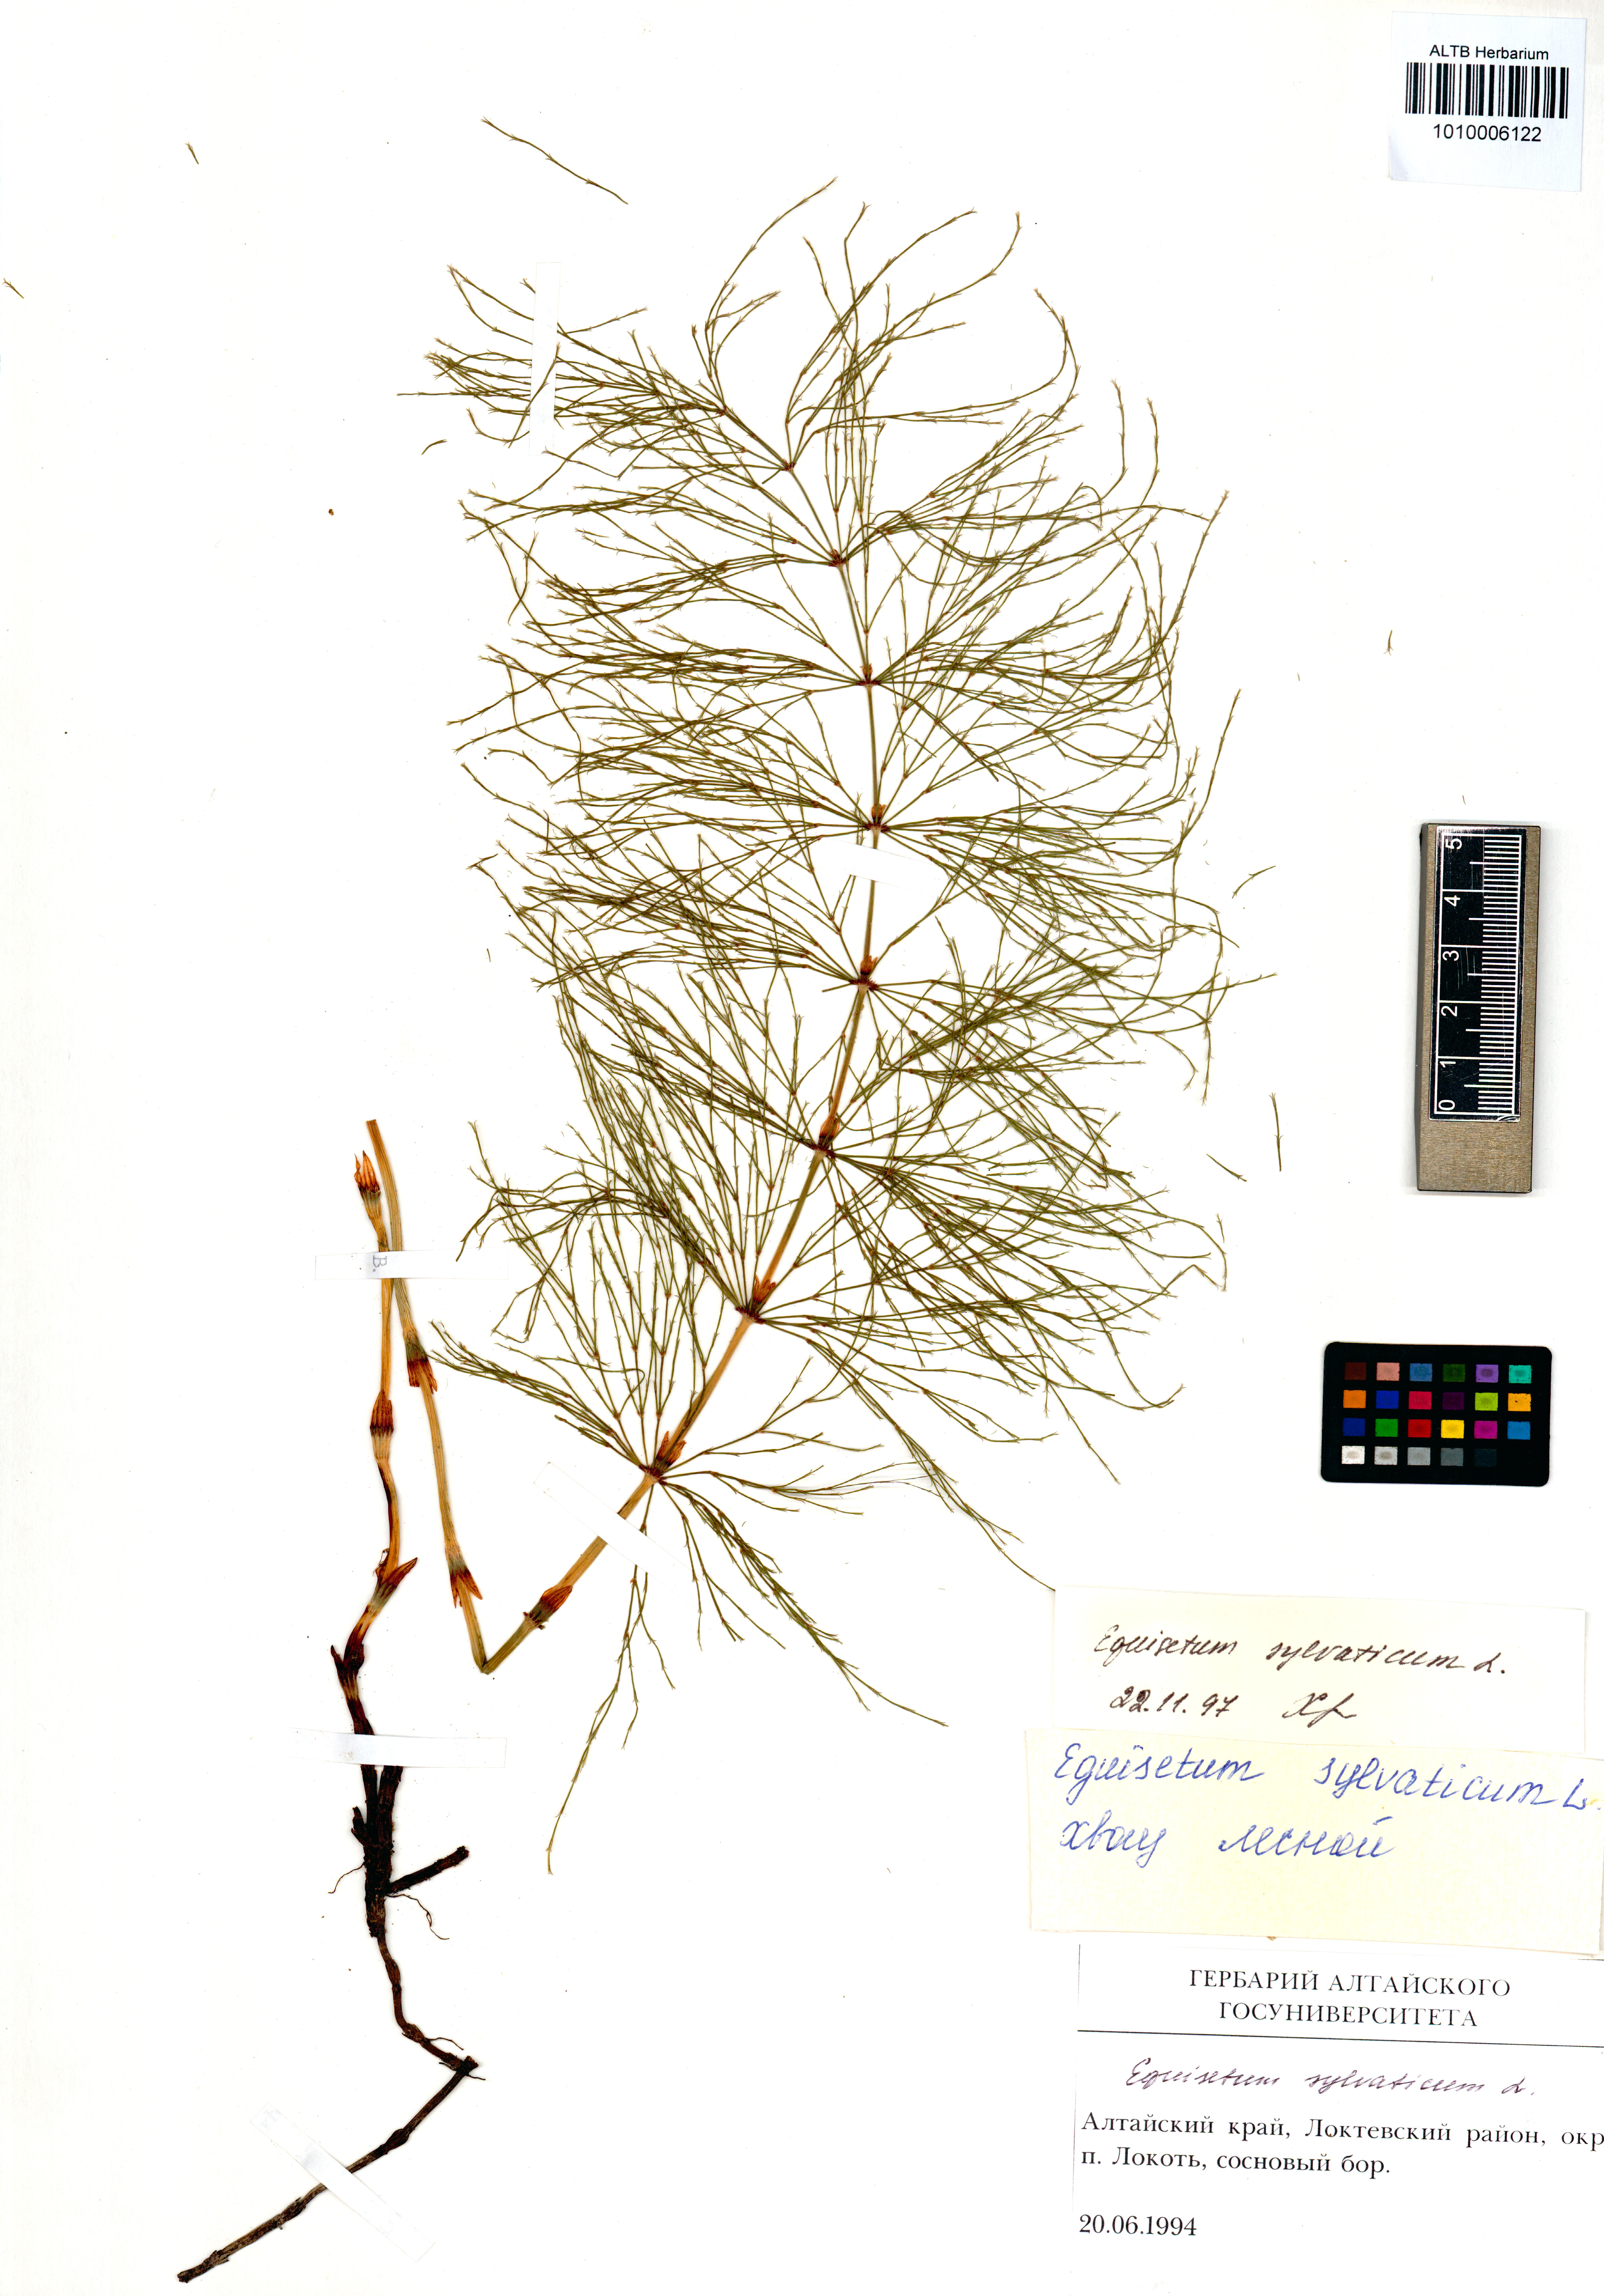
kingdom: Plantae
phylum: Tracheophyta
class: Polypodiopsida
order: Equisetales
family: Equisetaceae
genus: Equisetum
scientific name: Equisetum sylvaticum
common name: Wood horsetail
